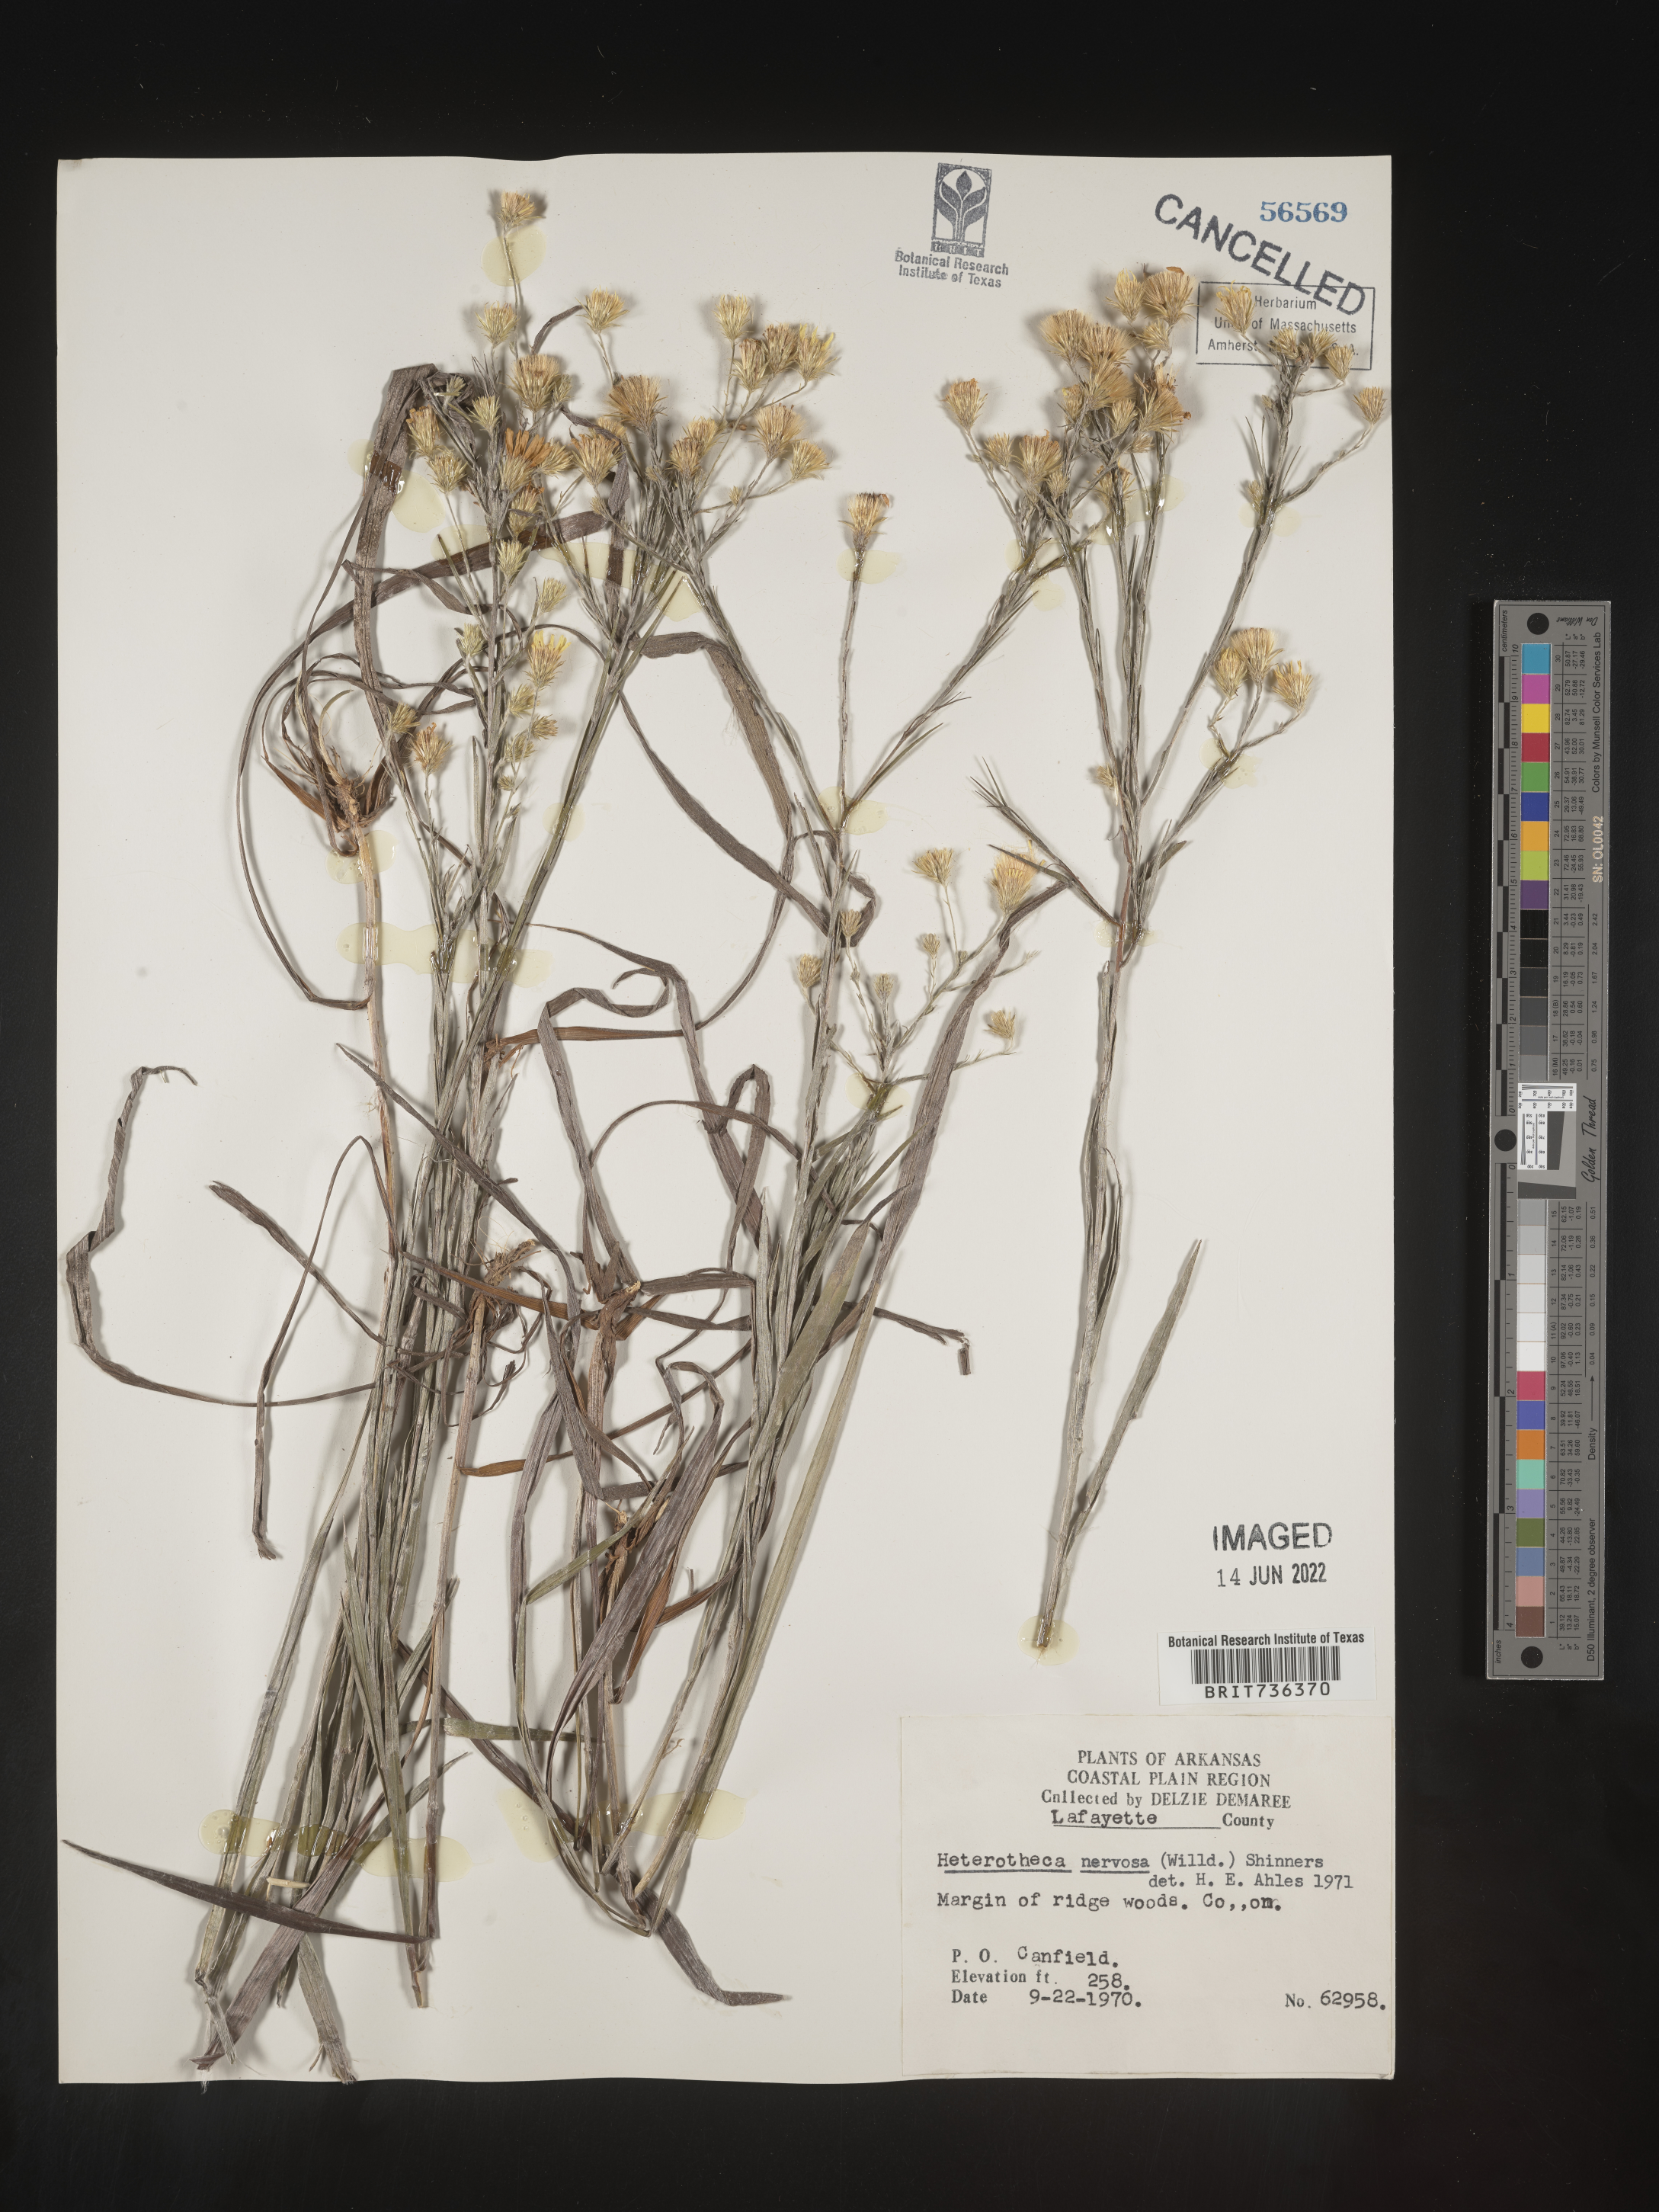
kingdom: Plantae
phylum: Tracheophyta
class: Magnoliopsida
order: Asterales
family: Asteraceae
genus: Pityopsis
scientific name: Pityopsis tenuifolia
